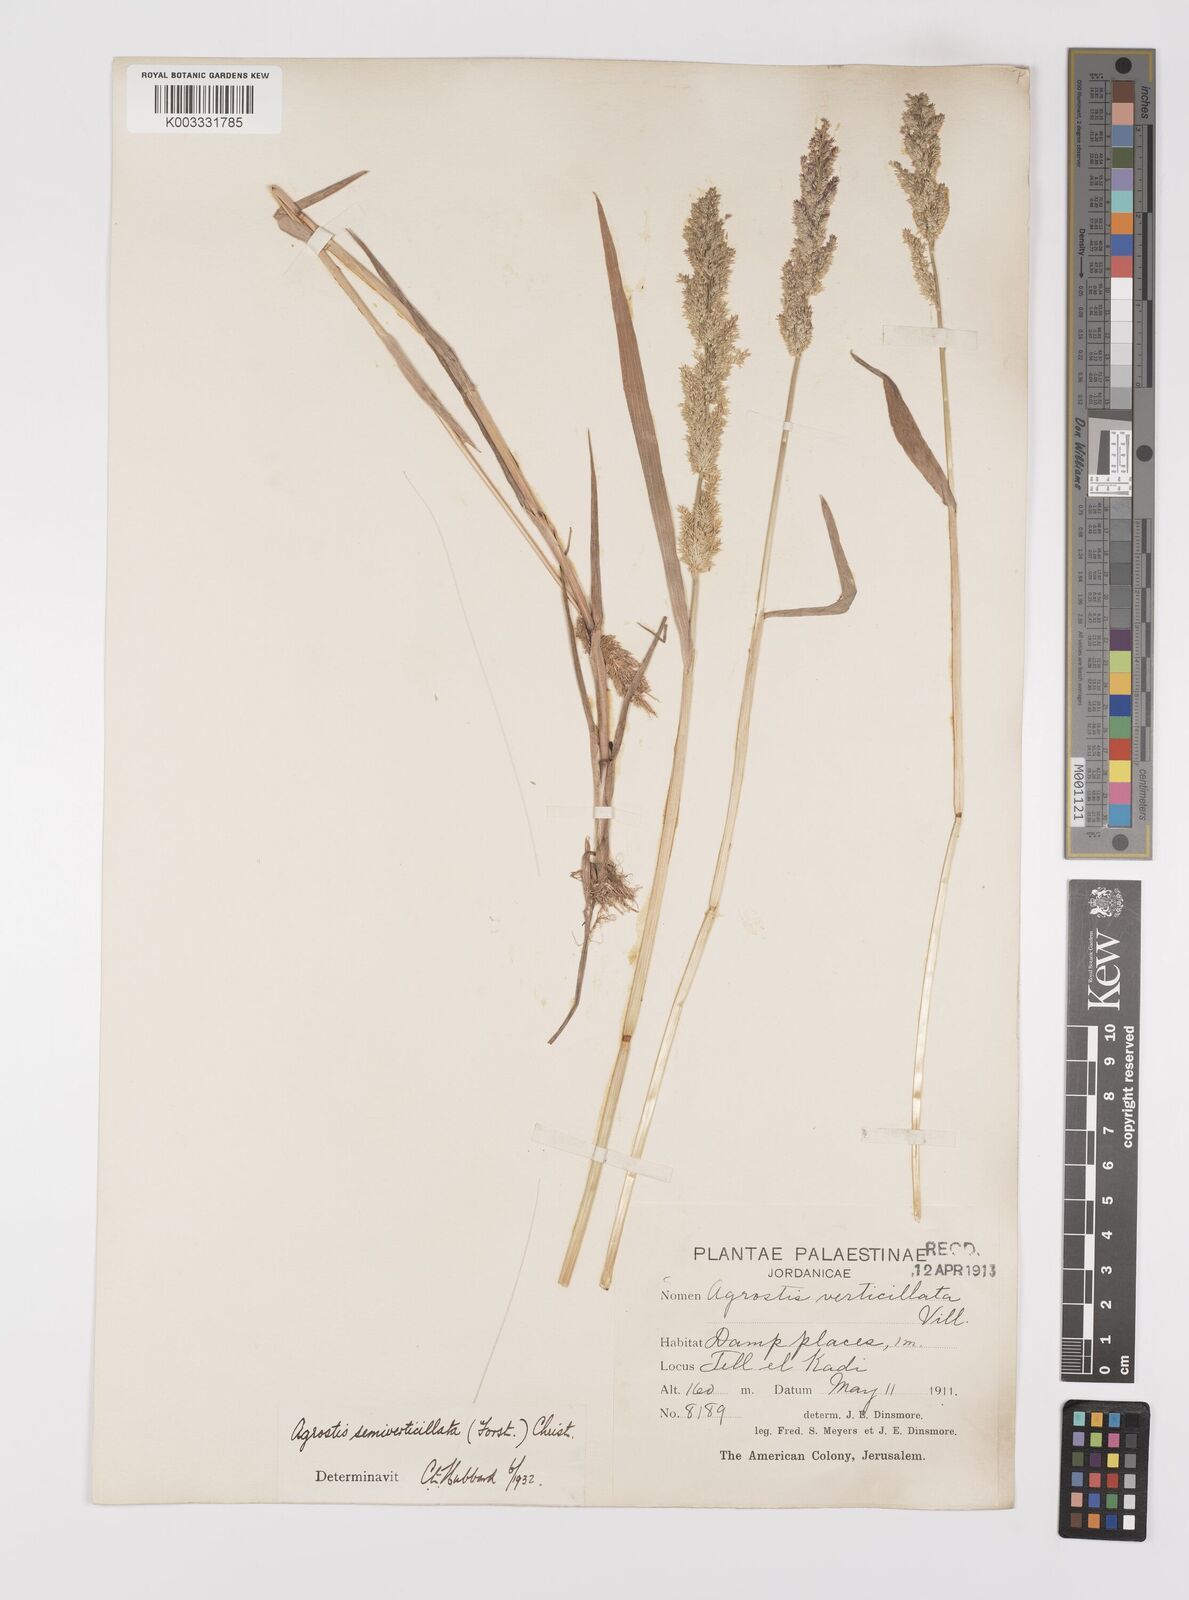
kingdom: Plantae
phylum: Tracheophyta
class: Liliopsida
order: Poales
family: Poaceae
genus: Polypogon
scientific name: Polypogon viridis
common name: Water bent
